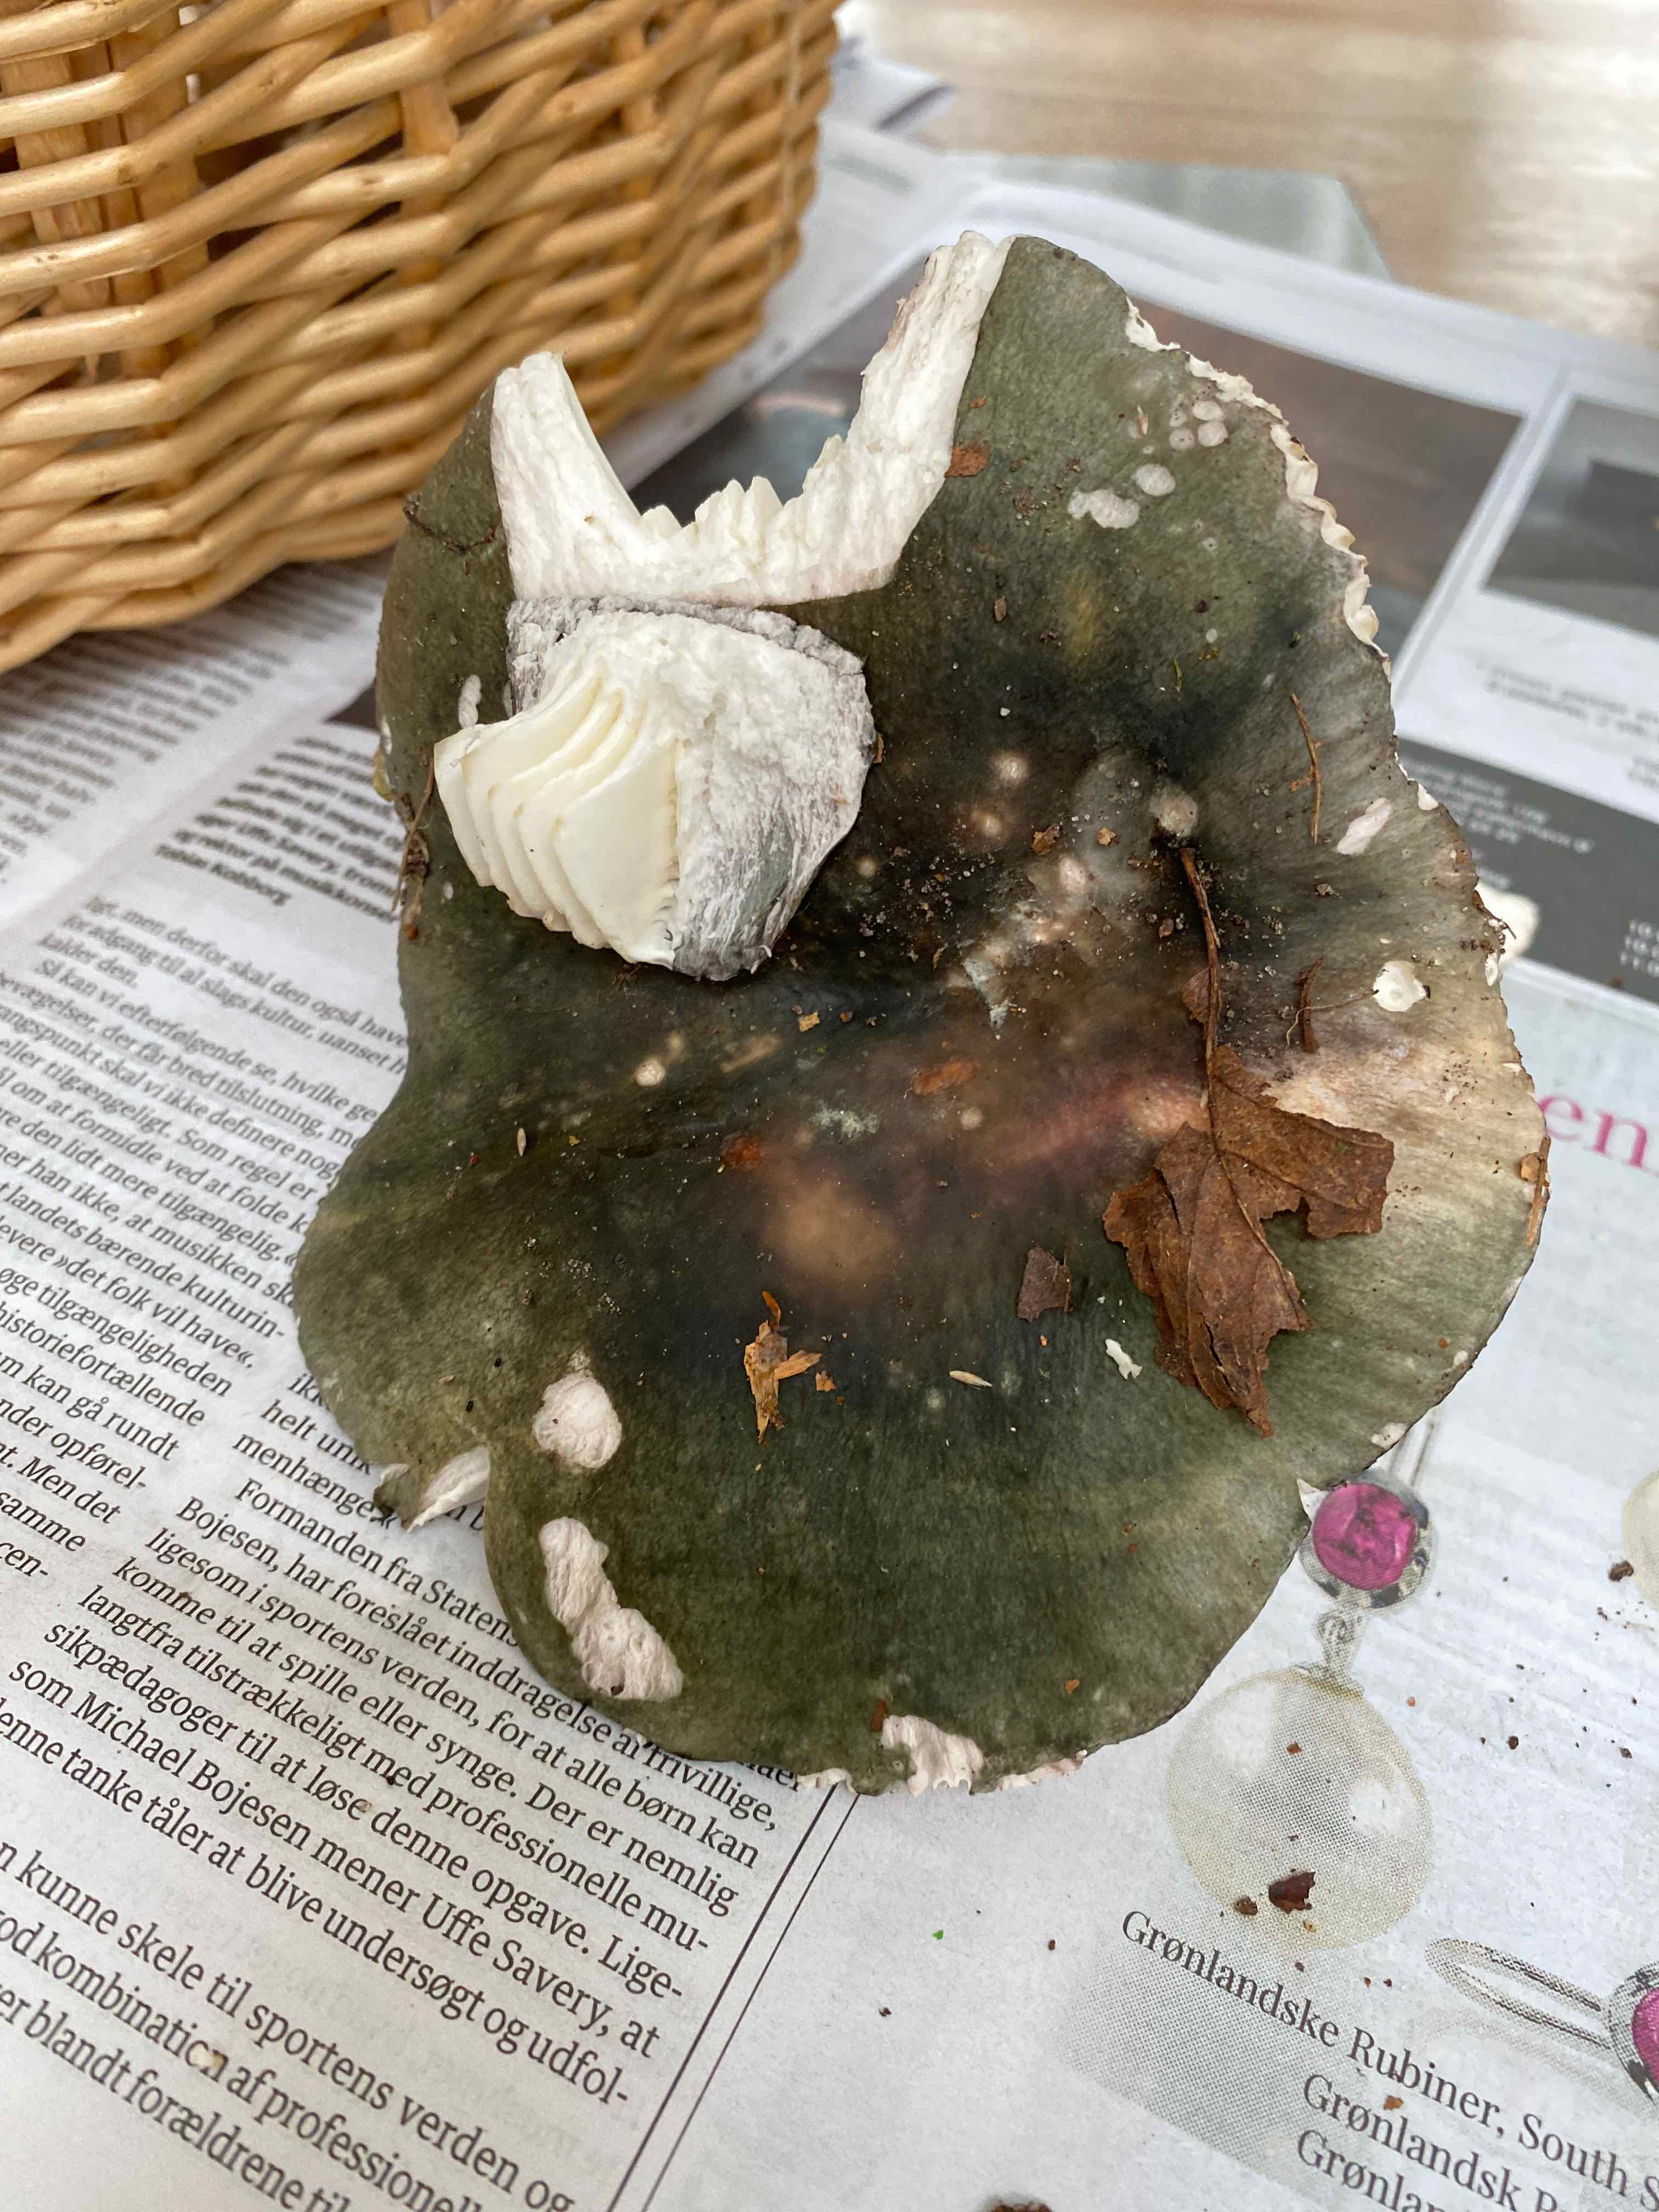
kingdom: Fungi
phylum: Basidiomycota
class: Agaricomycetes
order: Russulales
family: Russulaceae
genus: Russula
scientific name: Russula
